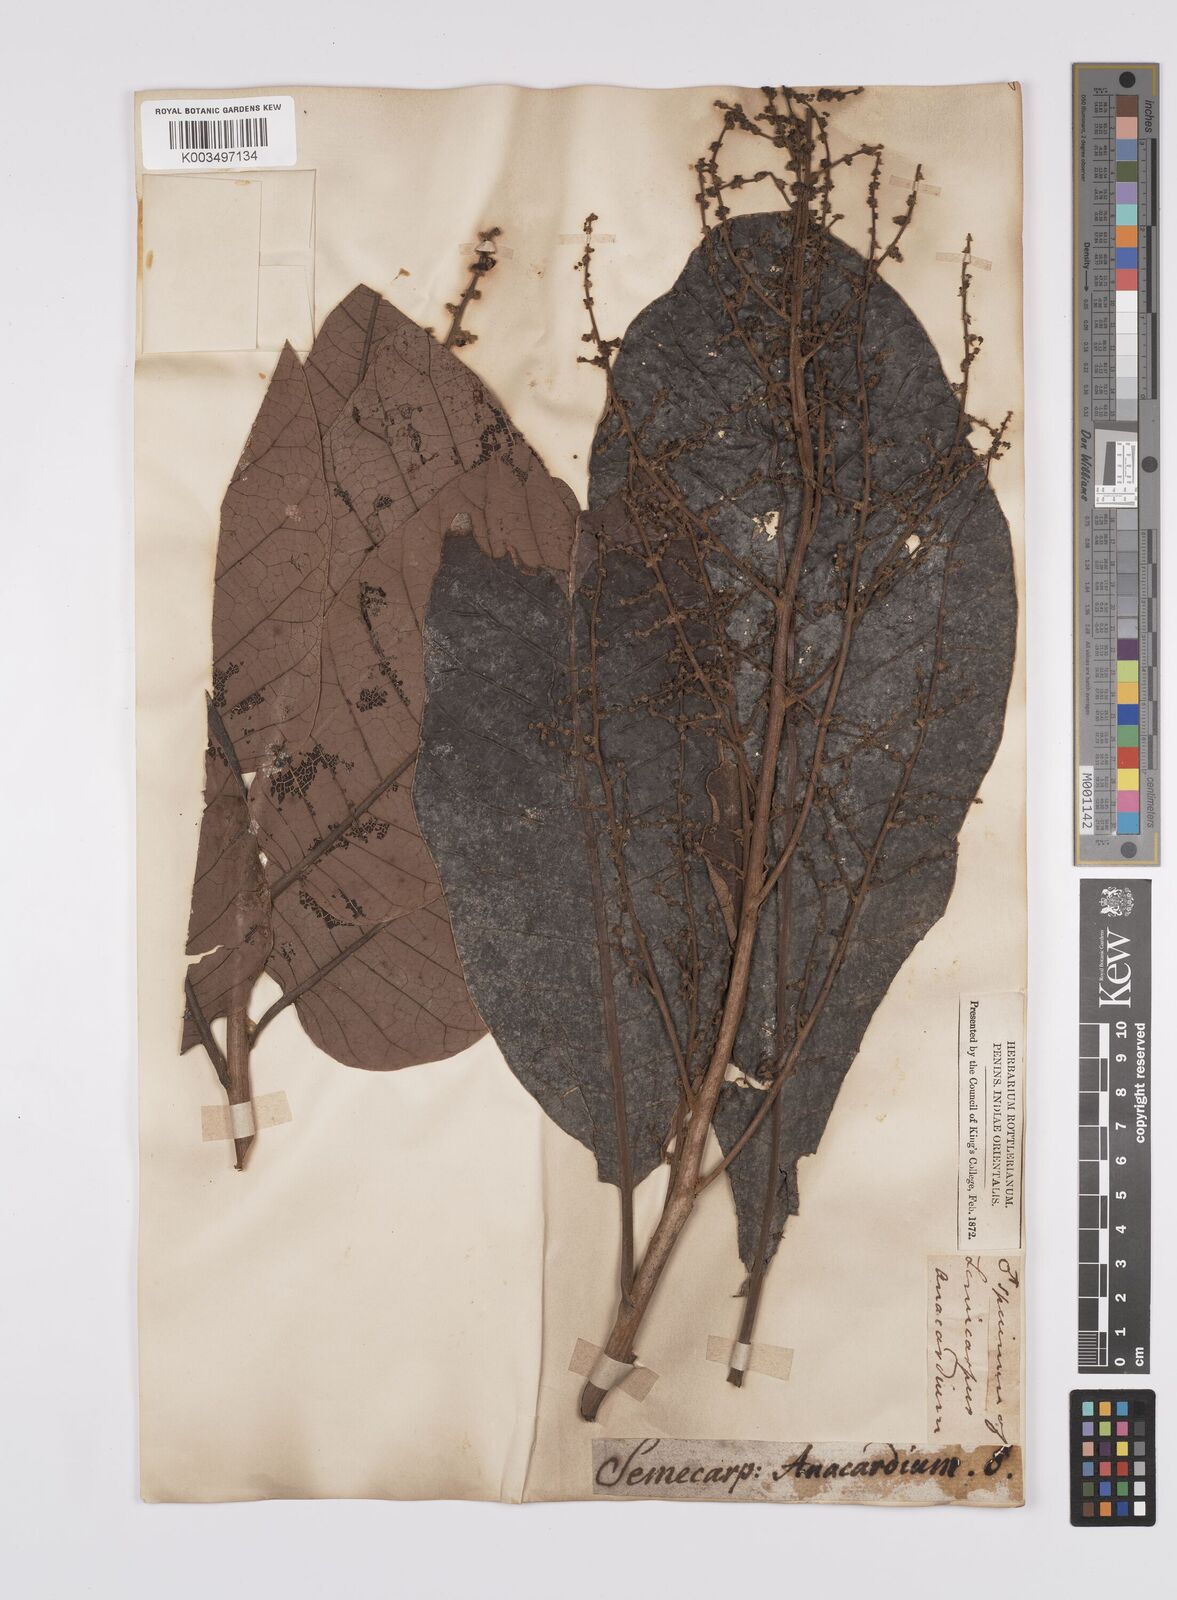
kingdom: Plantae
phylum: Tracheophyta
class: Magnoliopsida
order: Sapindales
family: Anacardiaceae
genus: Semecarpus
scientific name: Semecarpus anacardium
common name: Marking nut-tree
